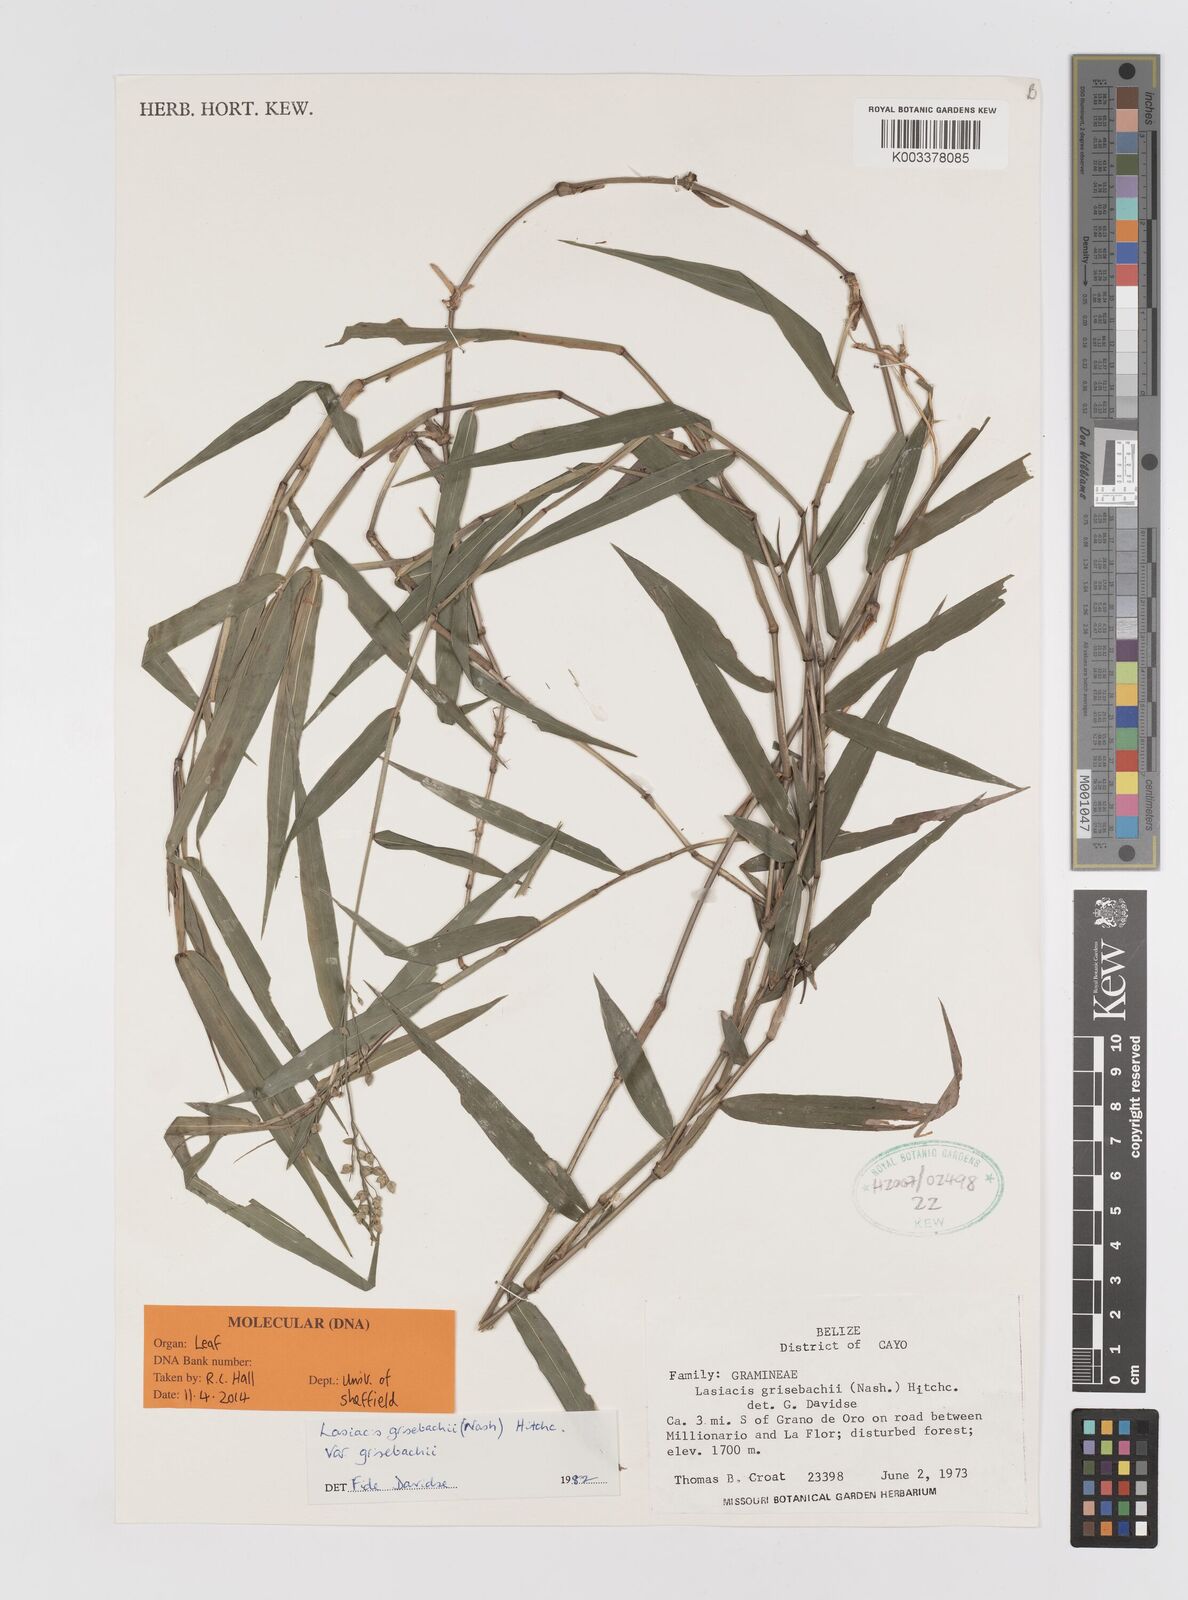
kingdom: Plantae
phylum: Tracheophyta
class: Liliopsida
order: Poales
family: Poaceae
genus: Lasiacis
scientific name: Lasiacis grisebachii
